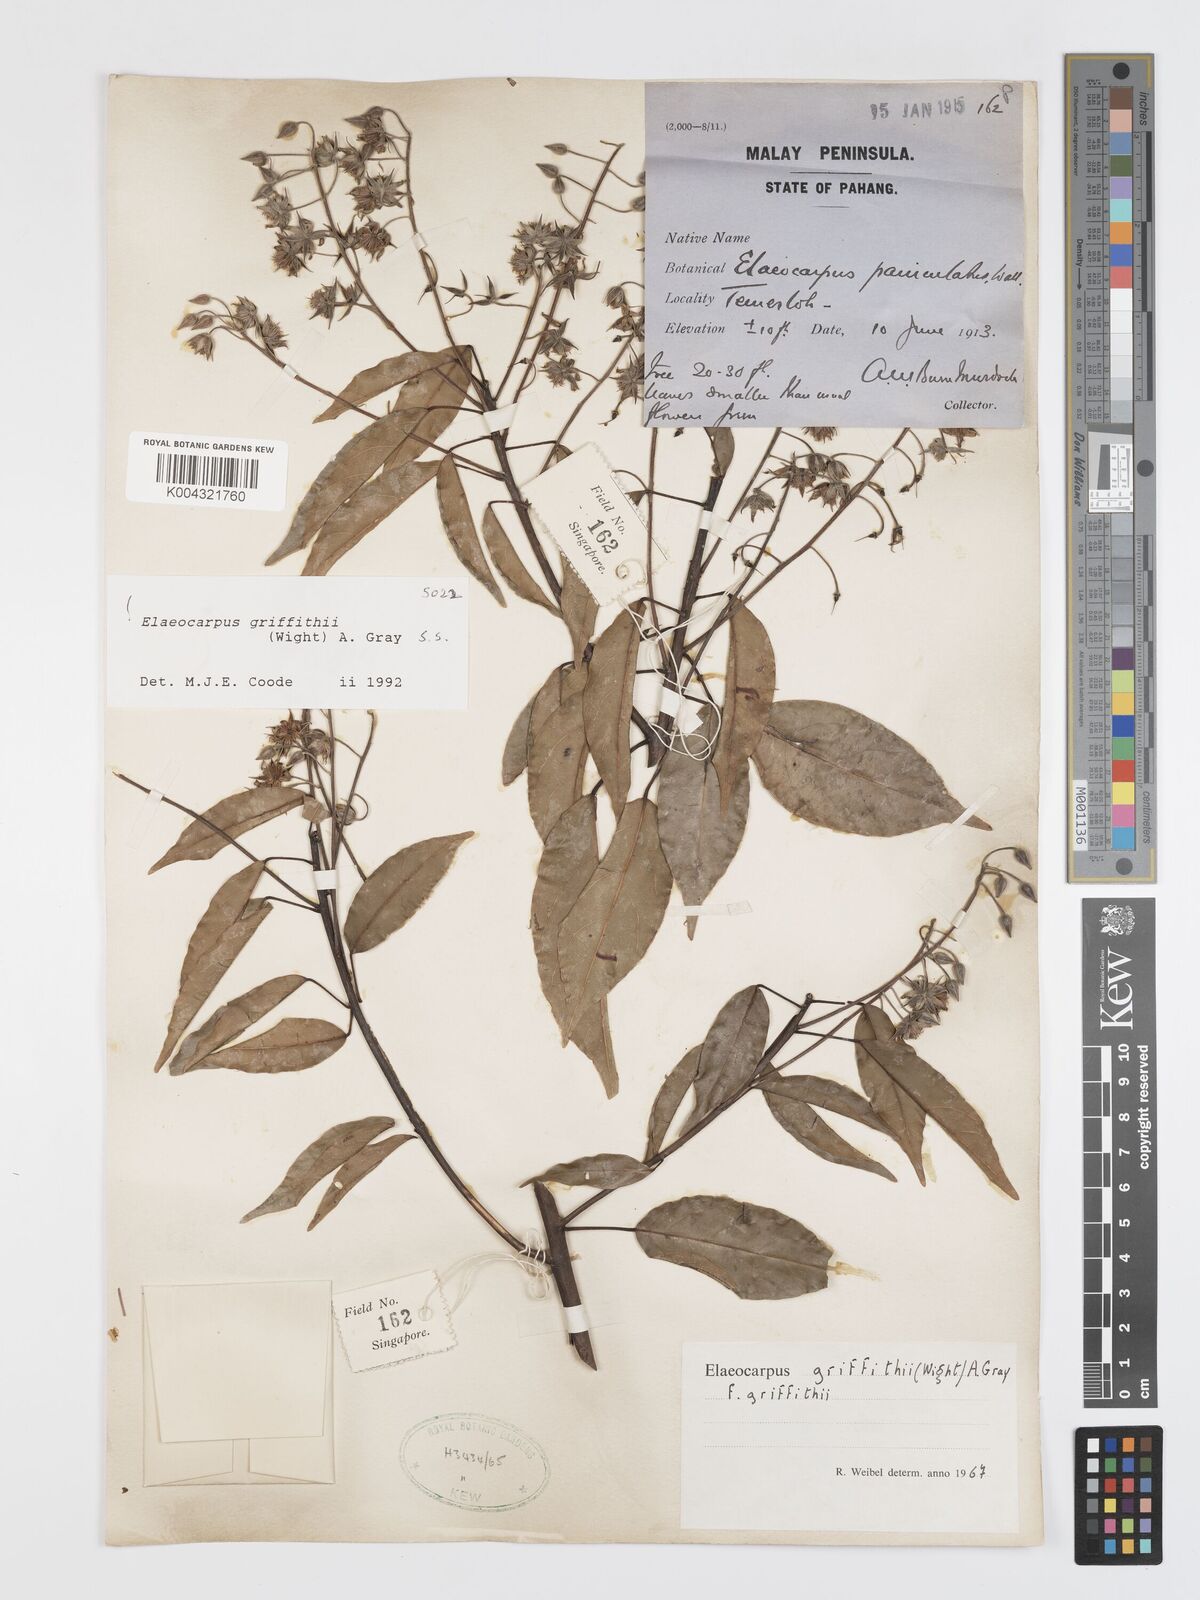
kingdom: Plantae
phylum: Tracheophyta
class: Magnoliopsida
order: Oxalidales
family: Elaeocarpaceae
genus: Elaeocarpus
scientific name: Elaeocarpus griffithii
